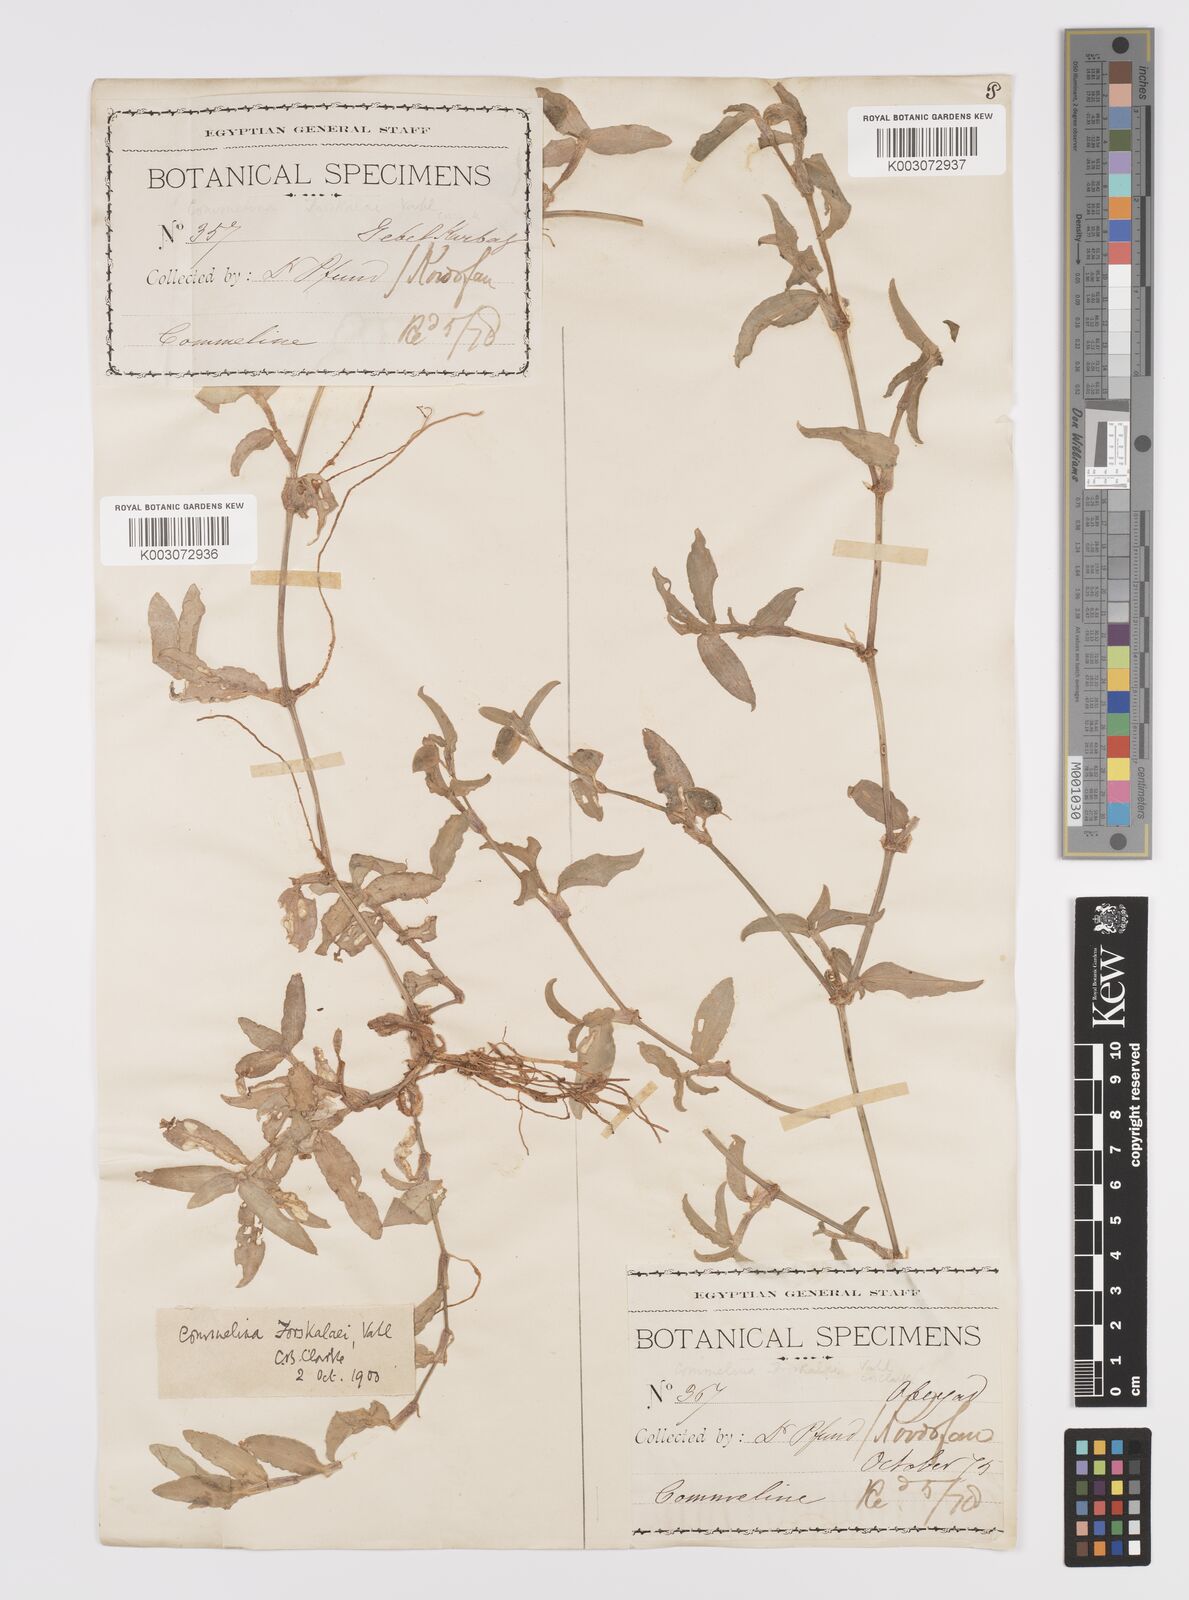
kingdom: Plantae
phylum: Tracheophyta
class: Liliopsida
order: Commelinales
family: Commelinaceae
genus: Commelina
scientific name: Commelina forskaolii
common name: Rat's ear
